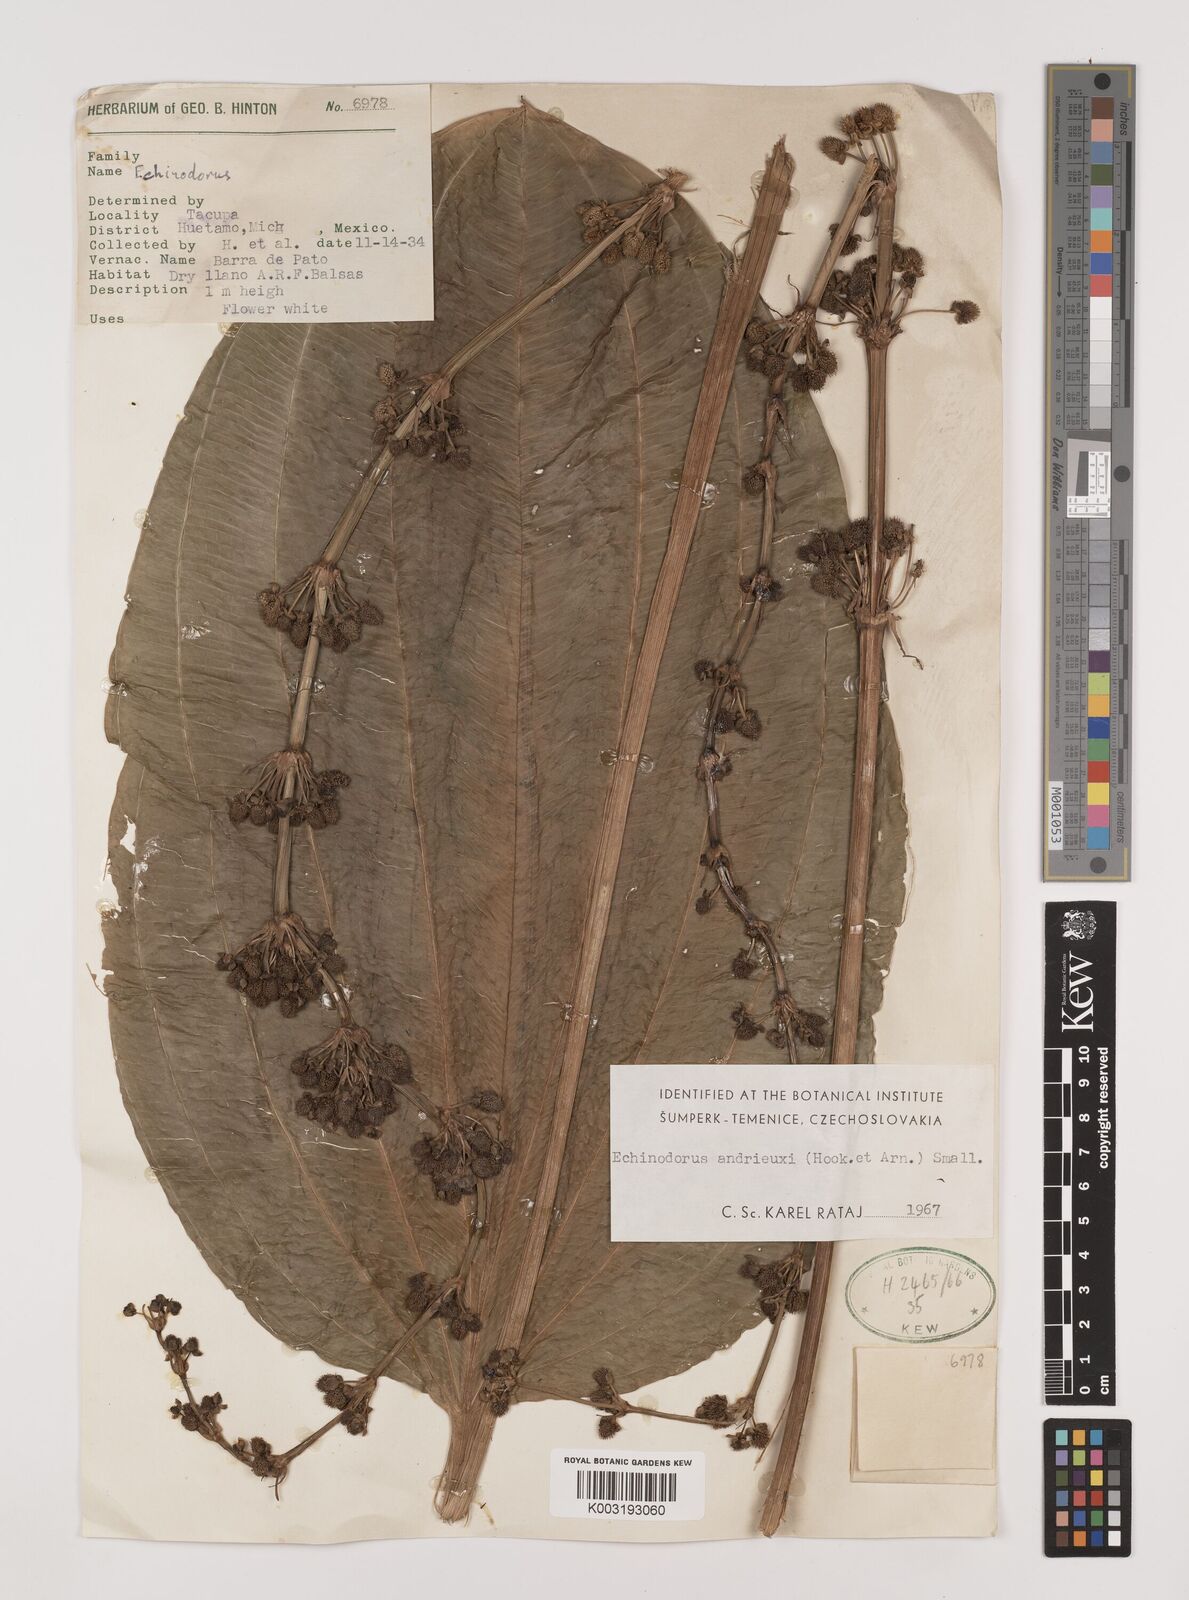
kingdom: Plantae
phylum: Tracheophyta
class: Liliopsida
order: Alismatales
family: Alismataceae
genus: Aquarius
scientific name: Aquarius subulatus
